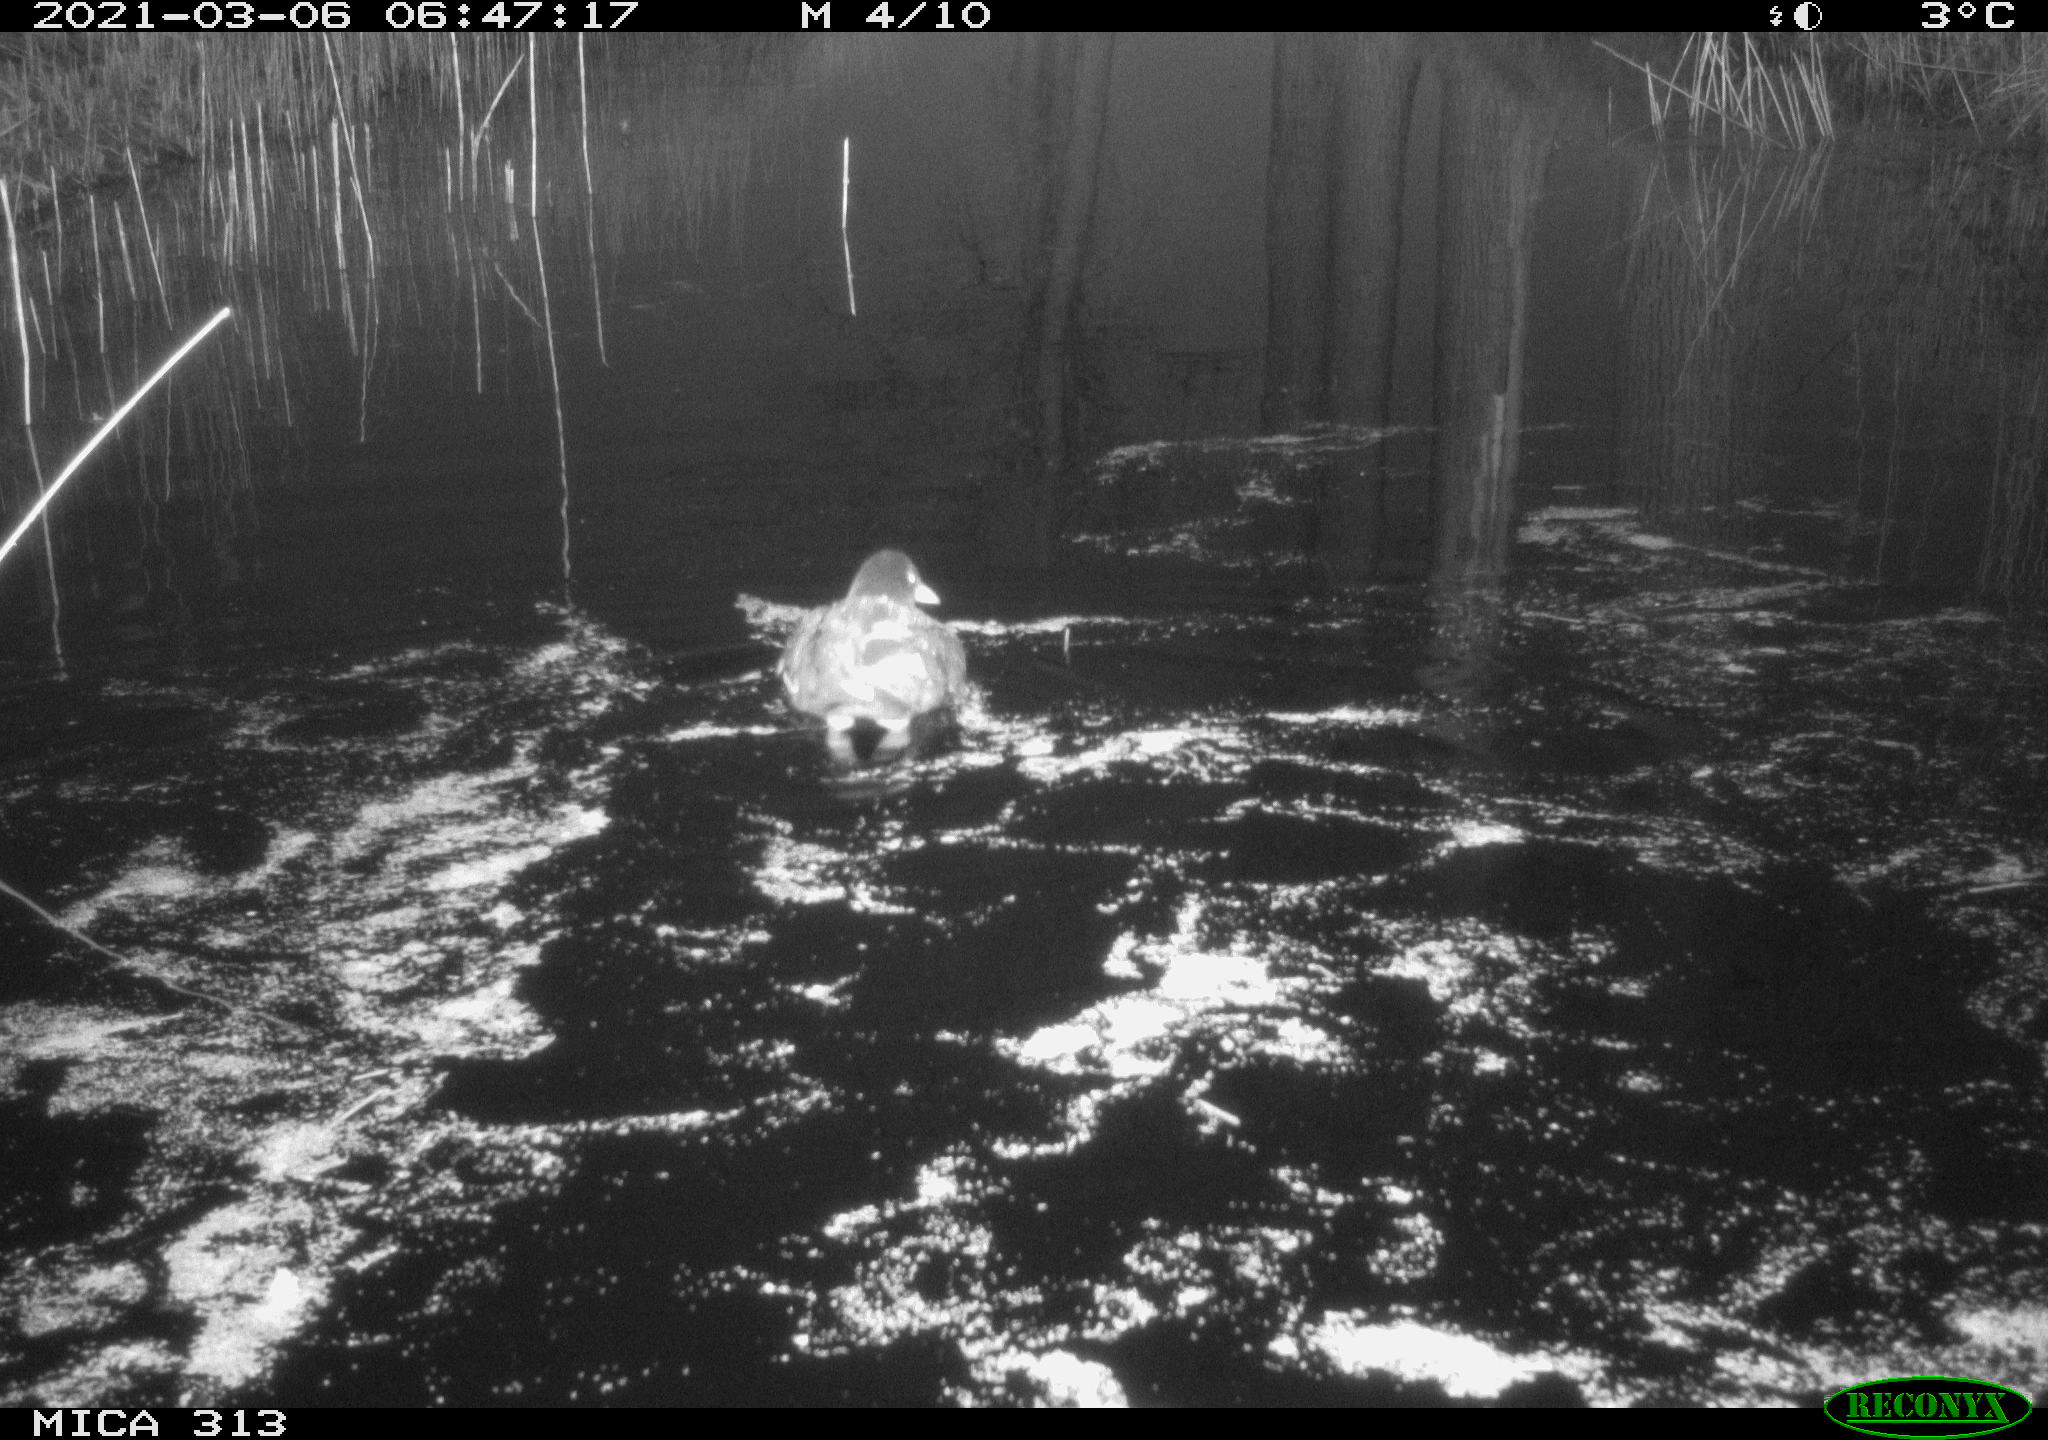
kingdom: Animalia
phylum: Chordata
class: Aves
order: Gruiformes
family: Rallidae
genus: Gallinula
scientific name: Gallinula chloropus
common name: Common moorhen
